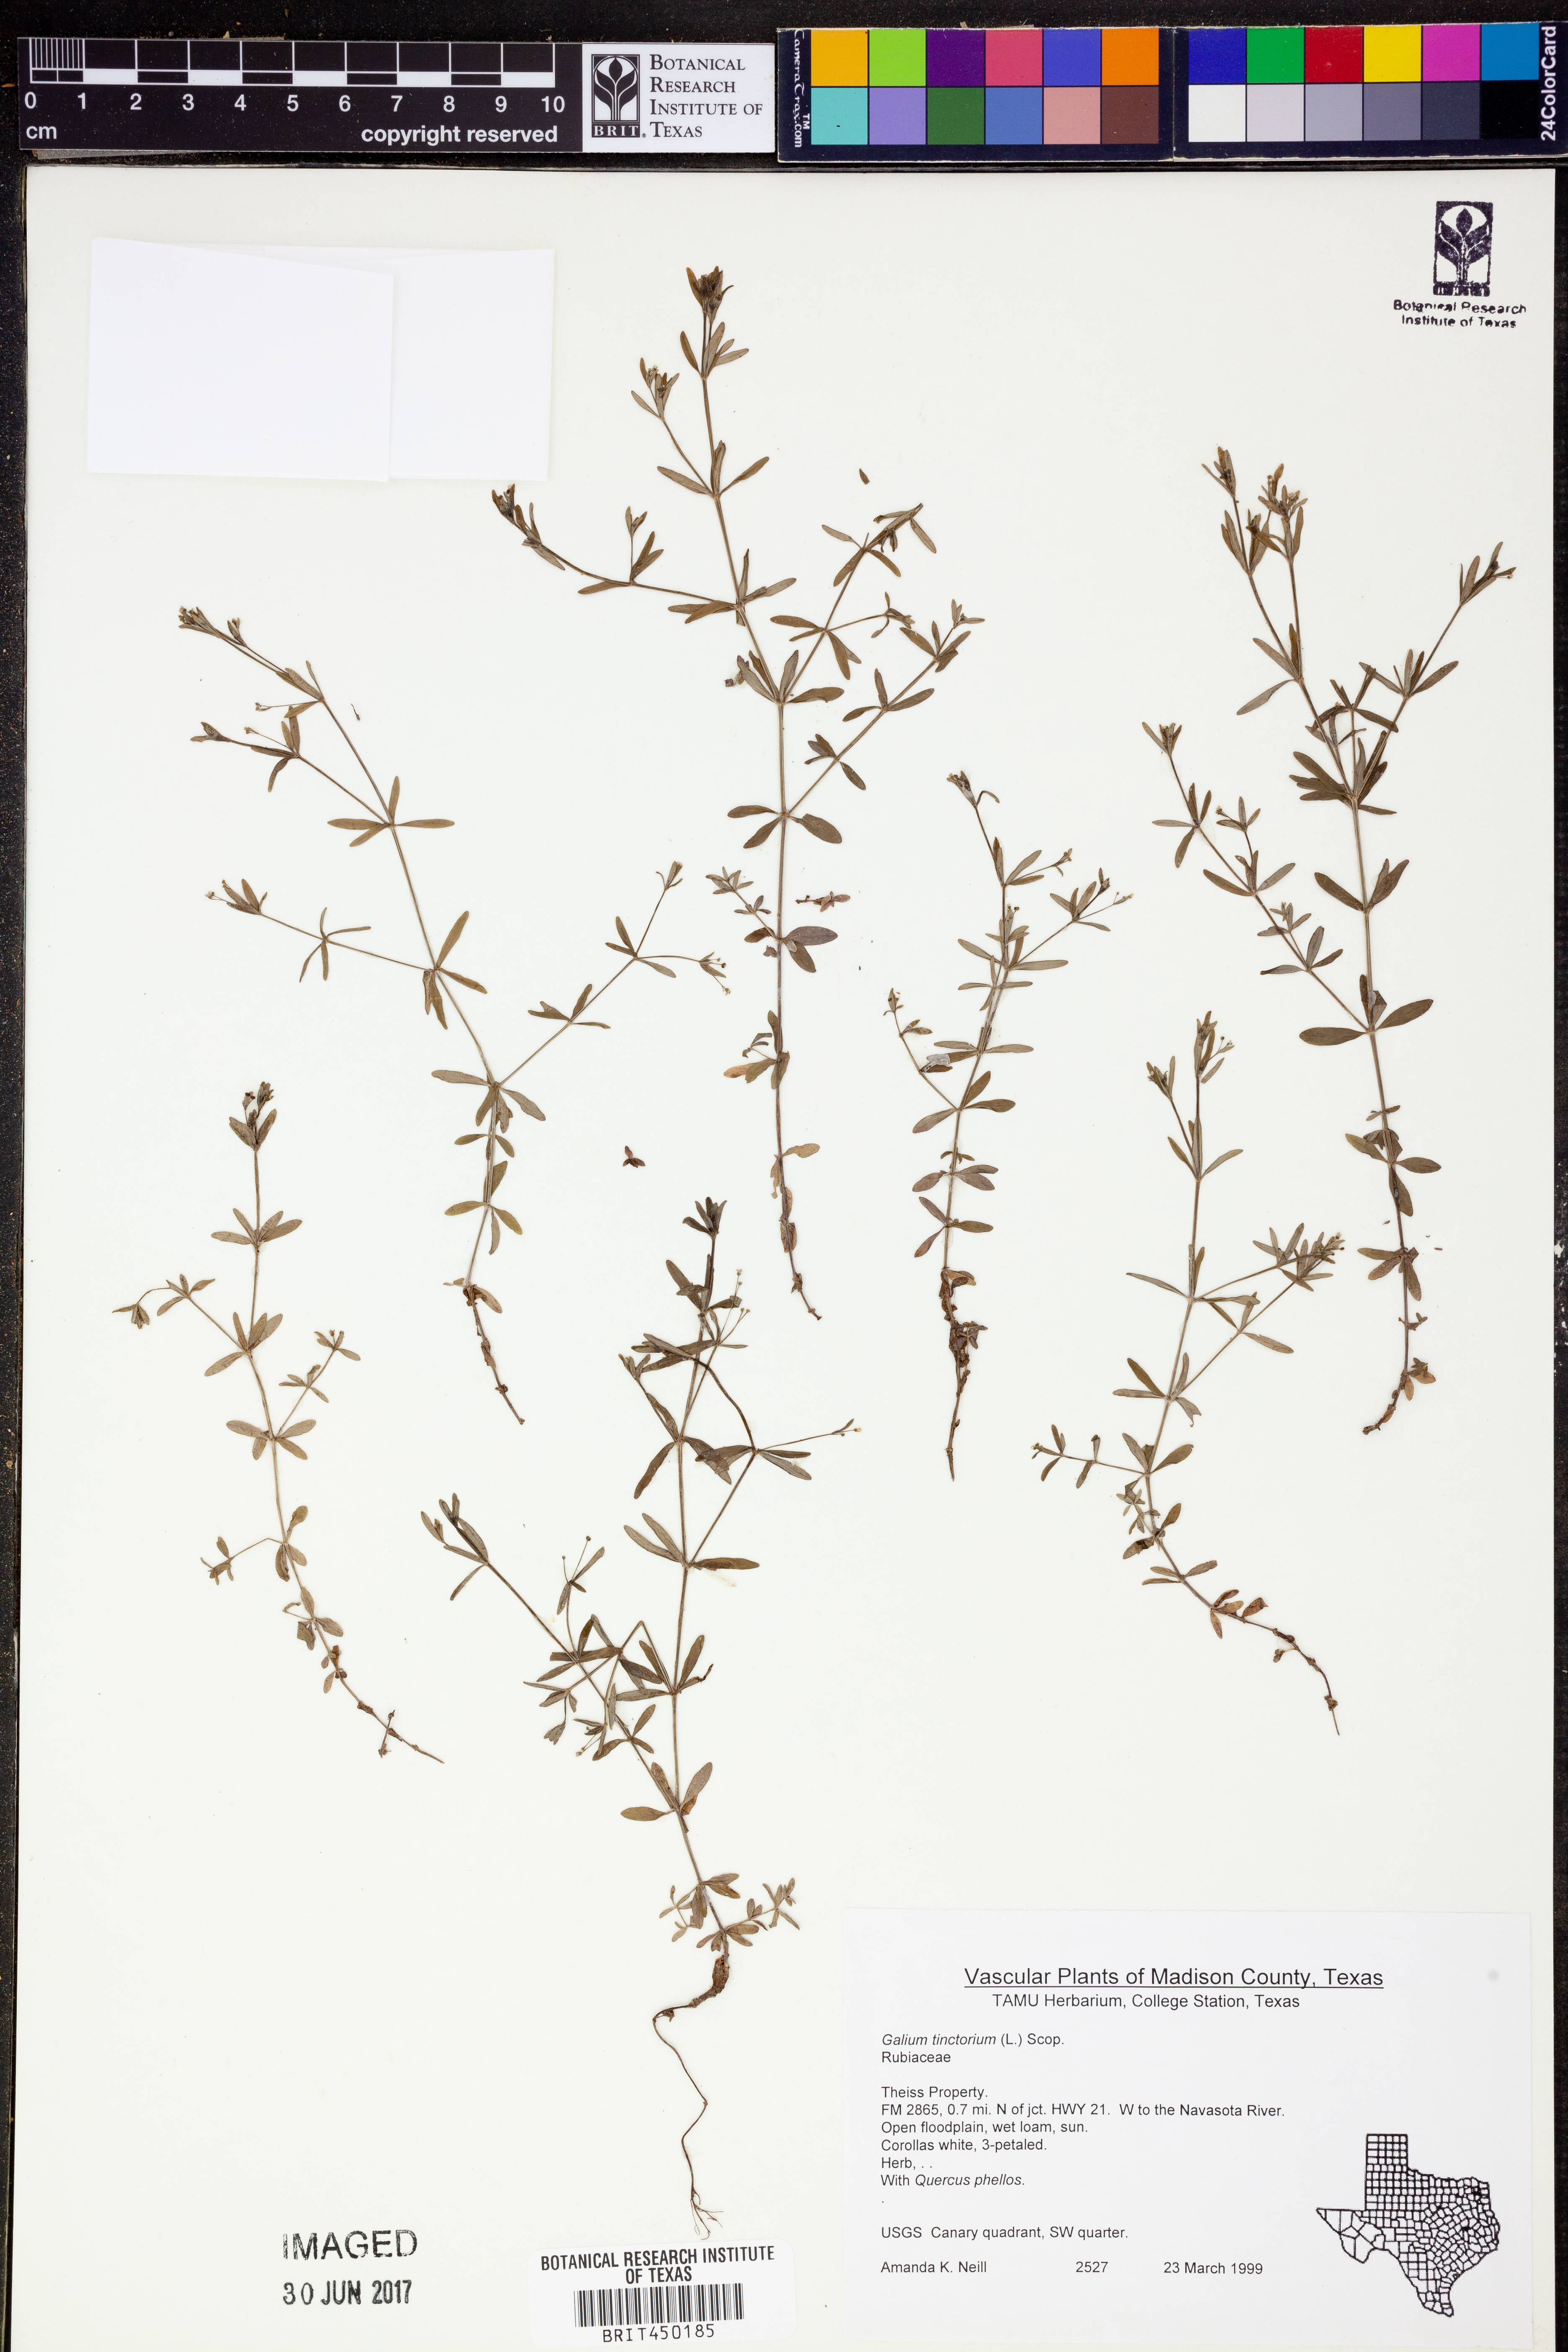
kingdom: Plantae
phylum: Tracheophyta
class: Magnoliopsida
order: Gentianales
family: Rubiaceae
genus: Asperula
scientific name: Asperula tinctoria
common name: Dyer's woodruff
